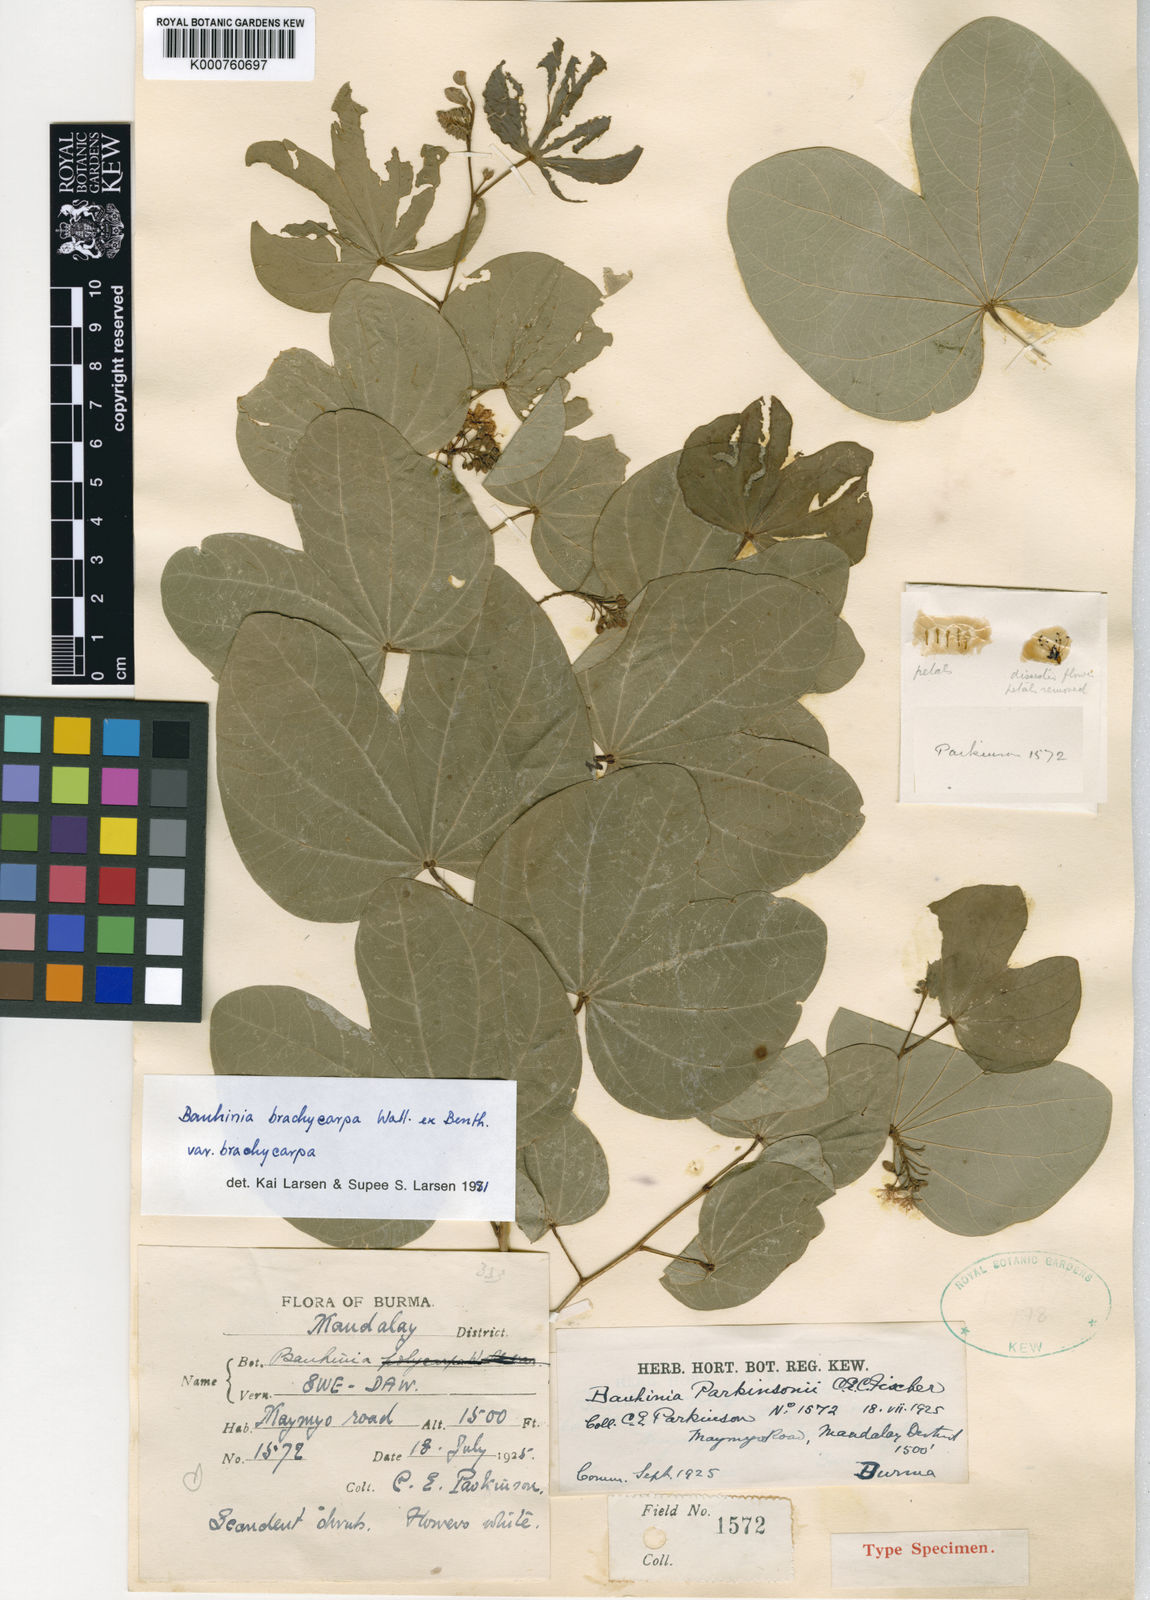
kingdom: Plantae
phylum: Tracheophyta
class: Magnoliopsida
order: Fabales
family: Fabaceae
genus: Bauhinia
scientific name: Bauhinia brachycarpa
